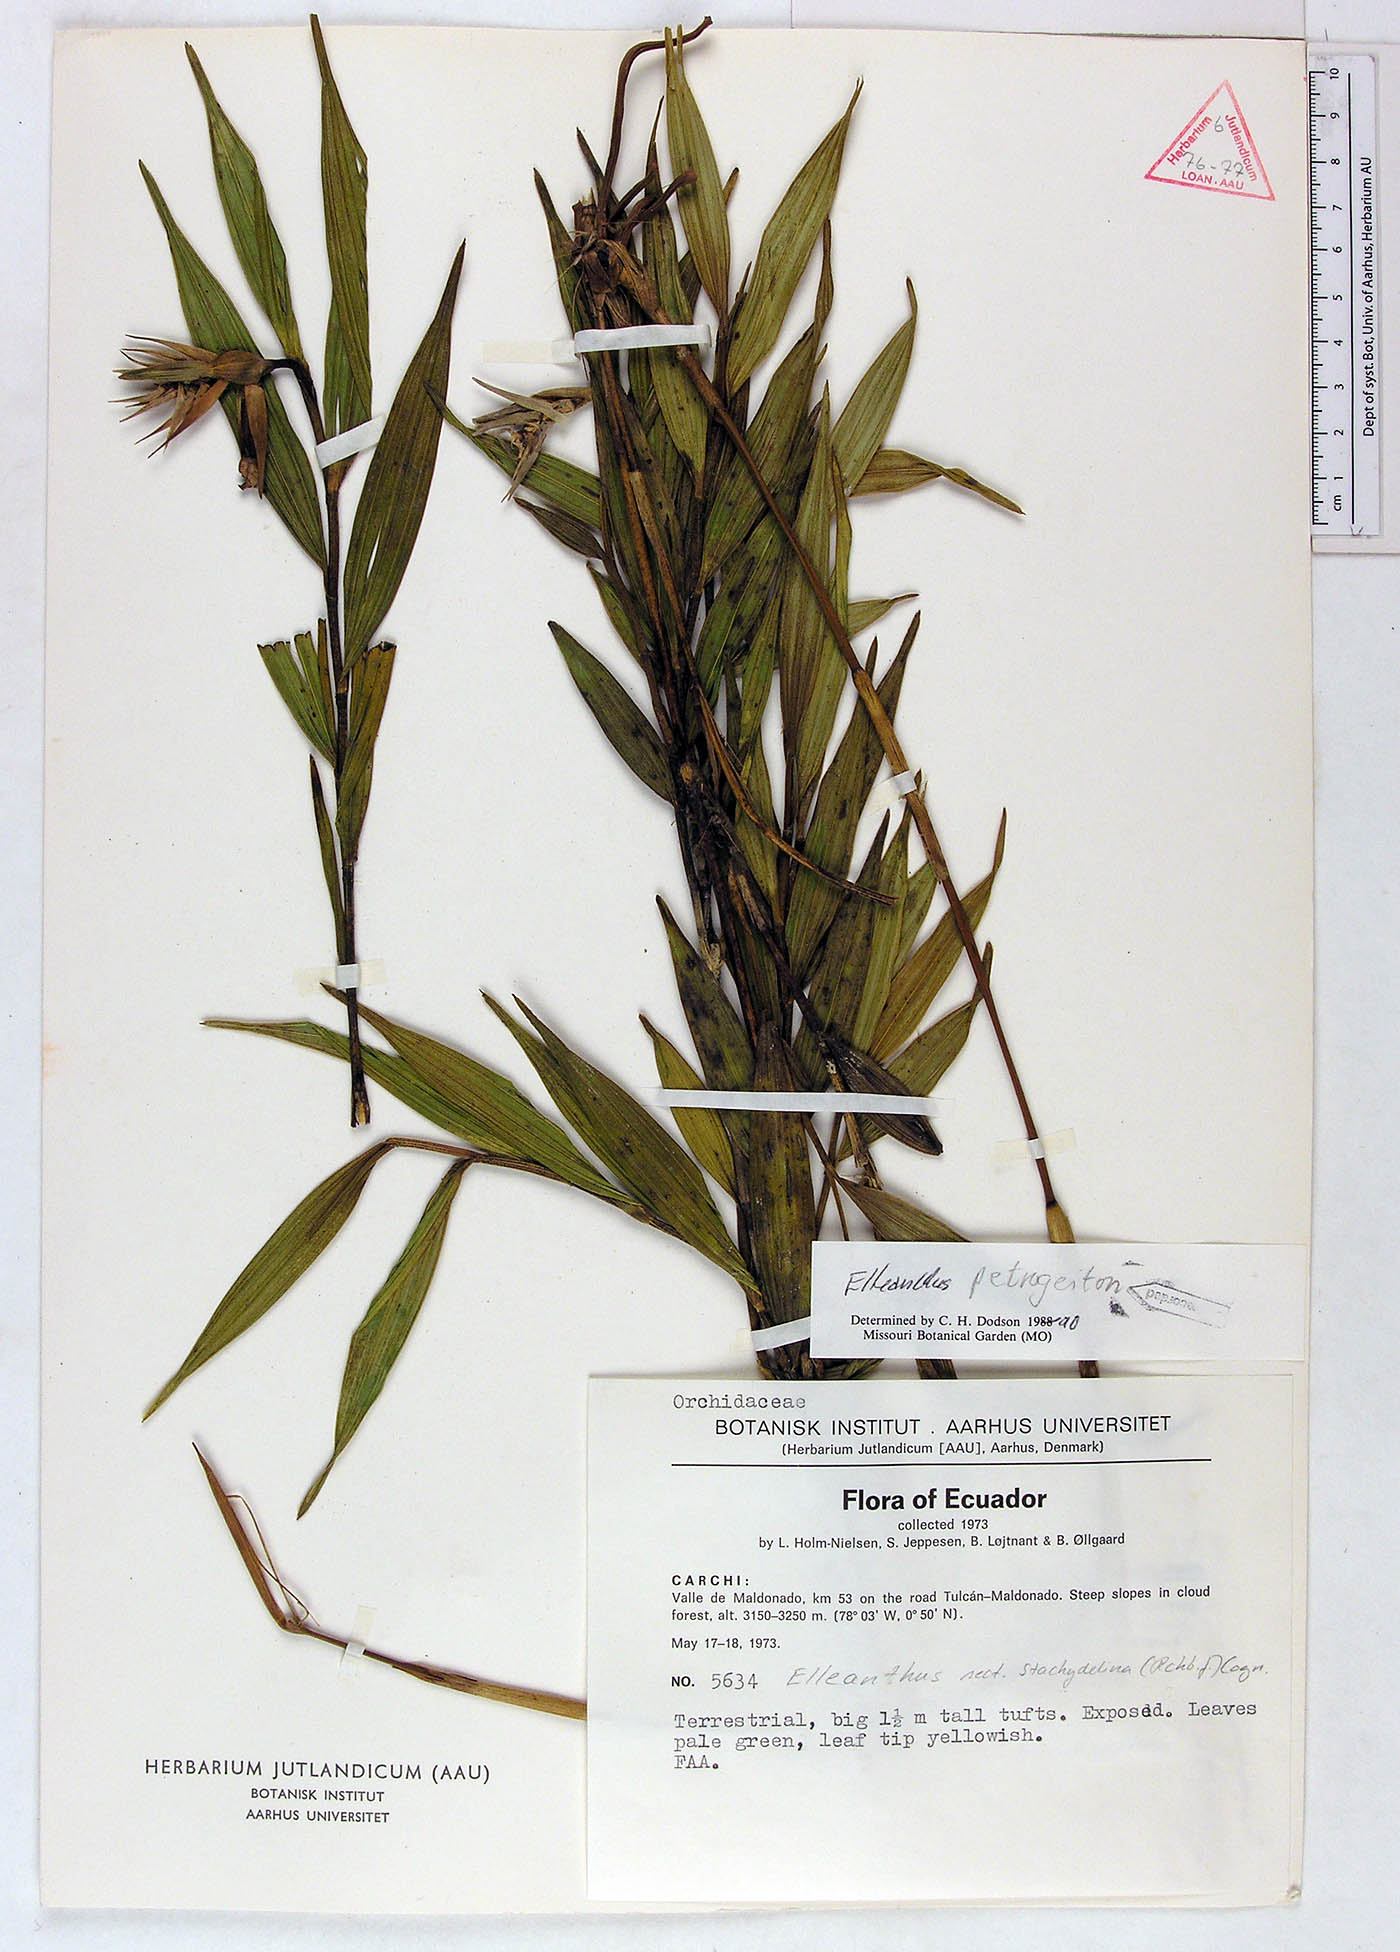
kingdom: Plantae
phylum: Tracheophyta
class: Liliopsida
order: Asparagales
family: Orchidaceae
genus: Elleanthus
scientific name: Elleanthus petrogeiton
